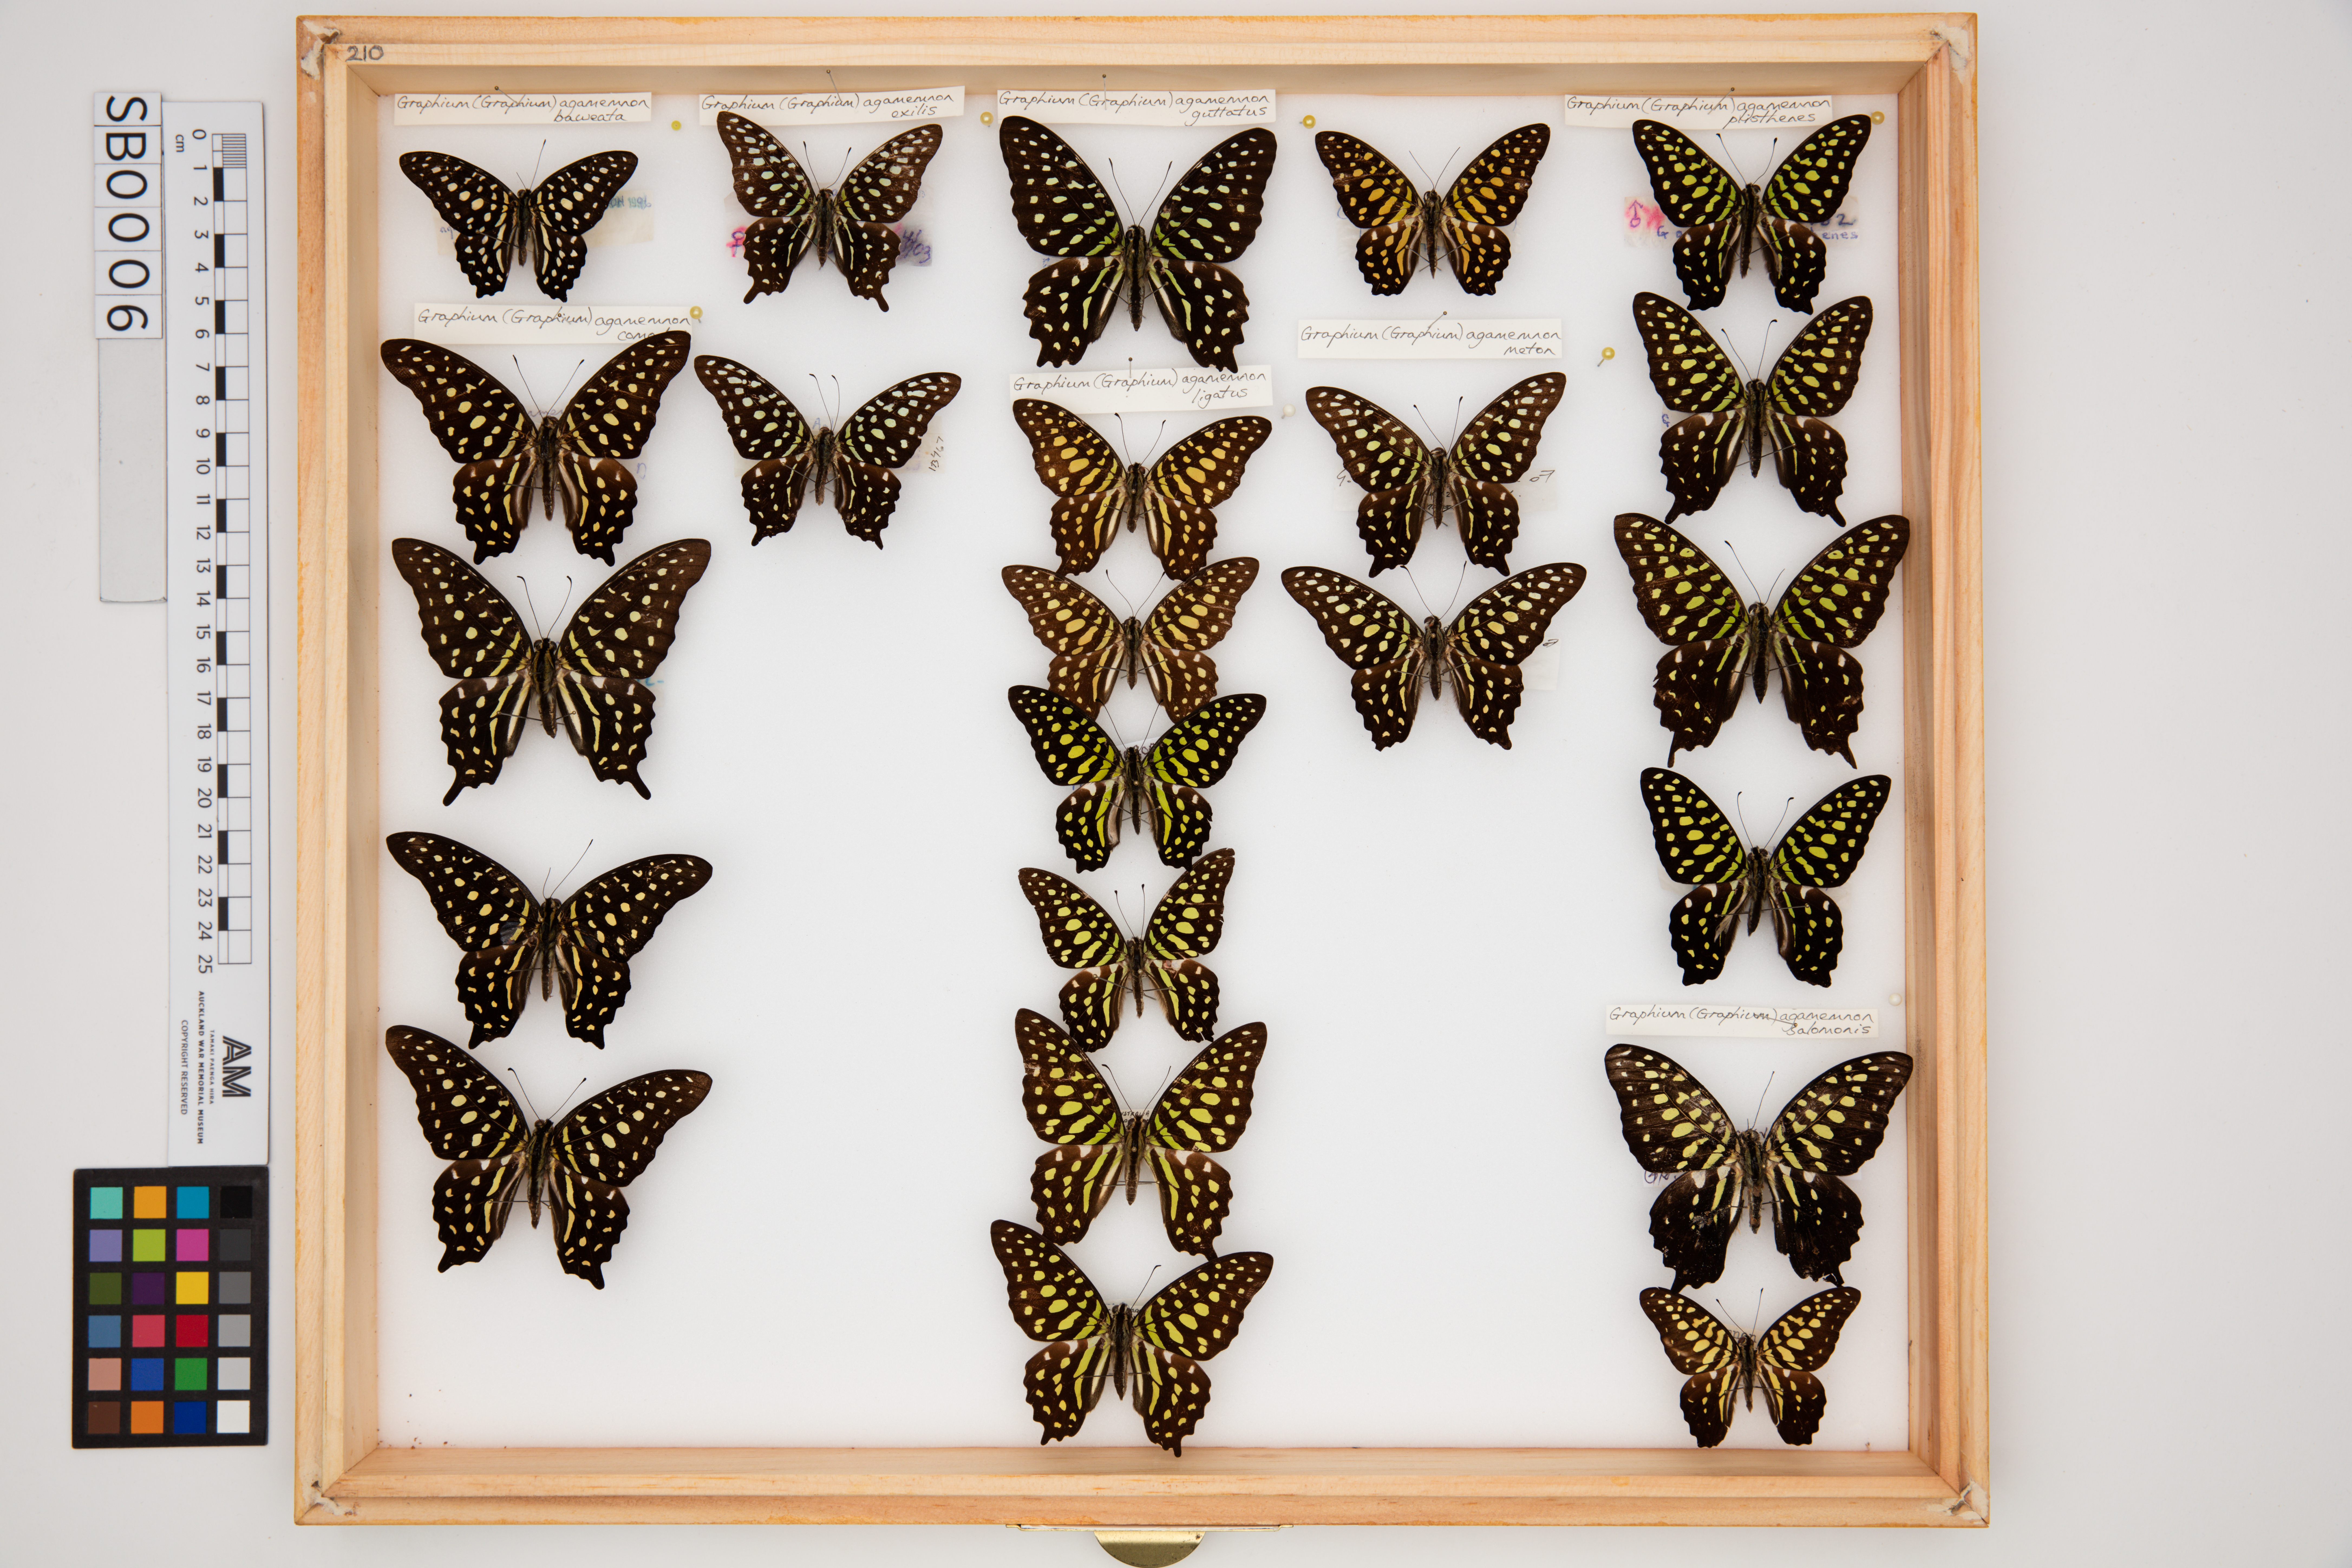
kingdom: Animalia
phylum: Arthropoda
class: Insecta
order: Lepidoptera
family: Papilionidae
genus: Graphium
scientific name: Graphium agamemnon
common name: Tailed jay
